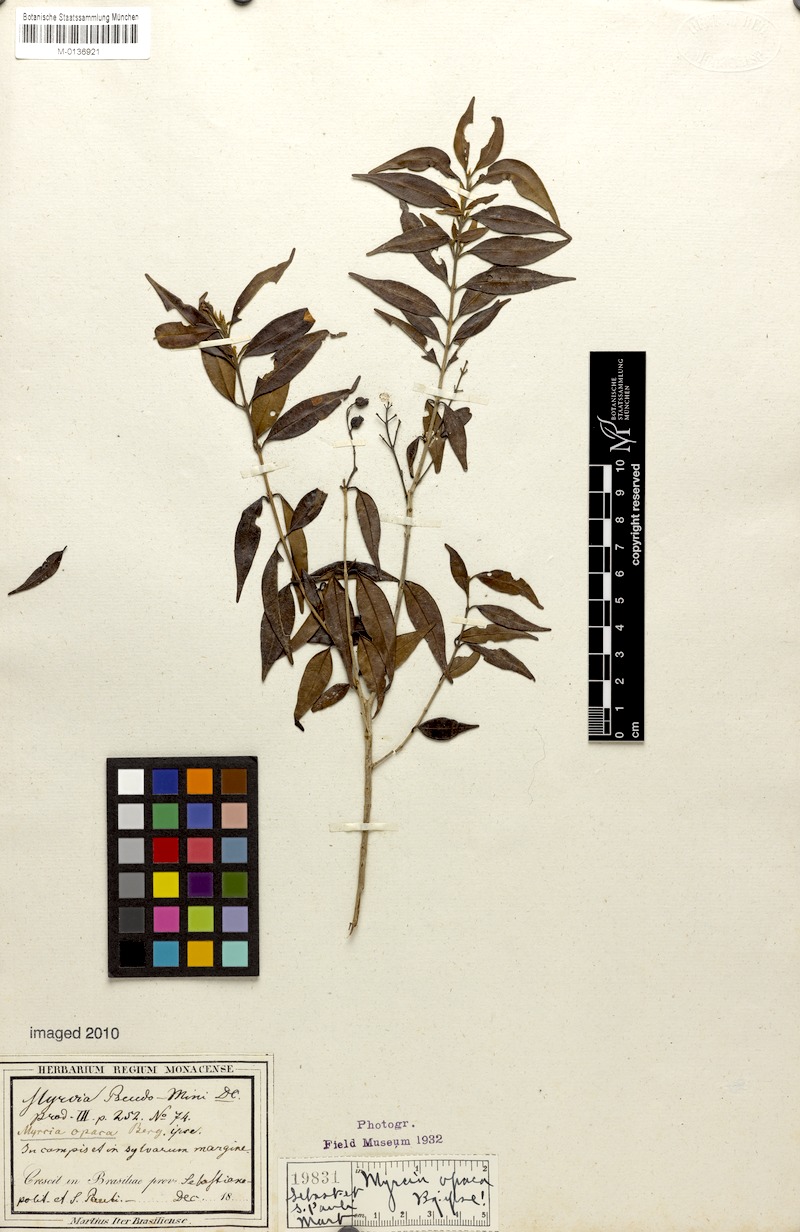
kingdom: Plantae
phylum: Tracheophyta
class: Magnoliopsida
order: Myrtales
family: Myrtaceae
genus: Myrcia
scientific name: Myrcia splendens
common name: Surinam cherry
